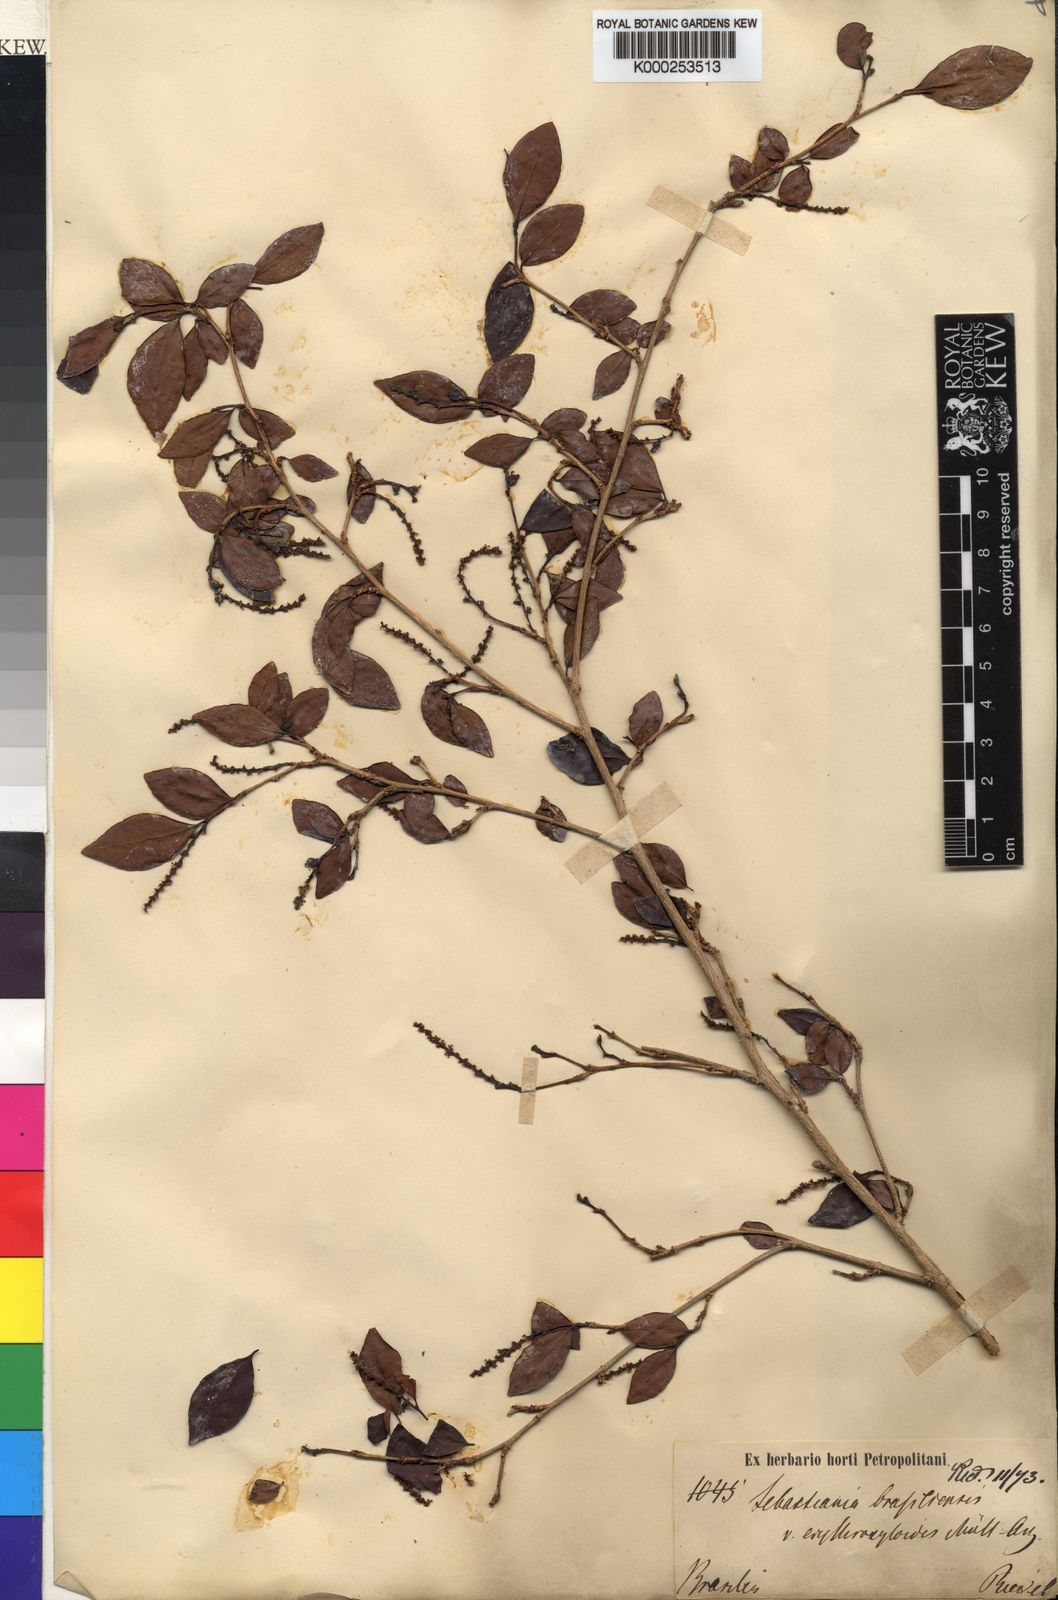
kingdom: Plantae
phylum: Tracheophyta
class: Magnoliopsida
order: Malpighiales
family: Euphorbiaceae
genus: Sebastiania
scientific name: Sebastiania
